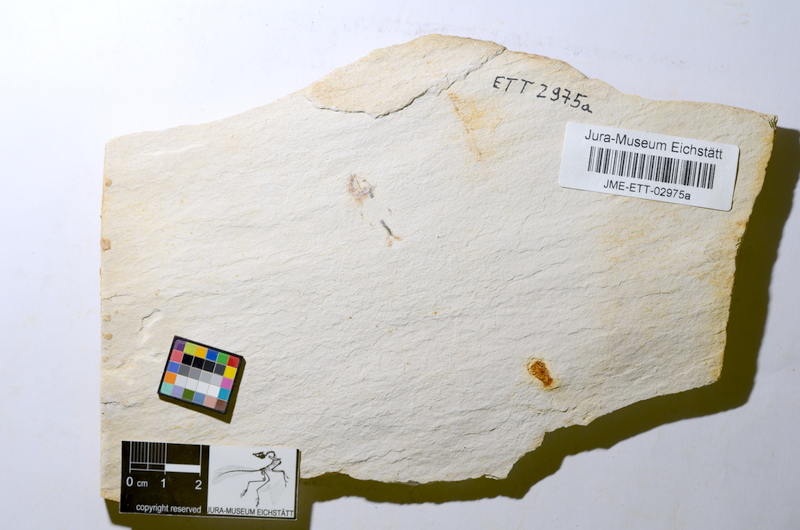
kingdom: Animalia
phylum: Chordata
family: Ascalaboidae
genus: Ebertichthys
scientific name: Ebertichthys ettlingensis
